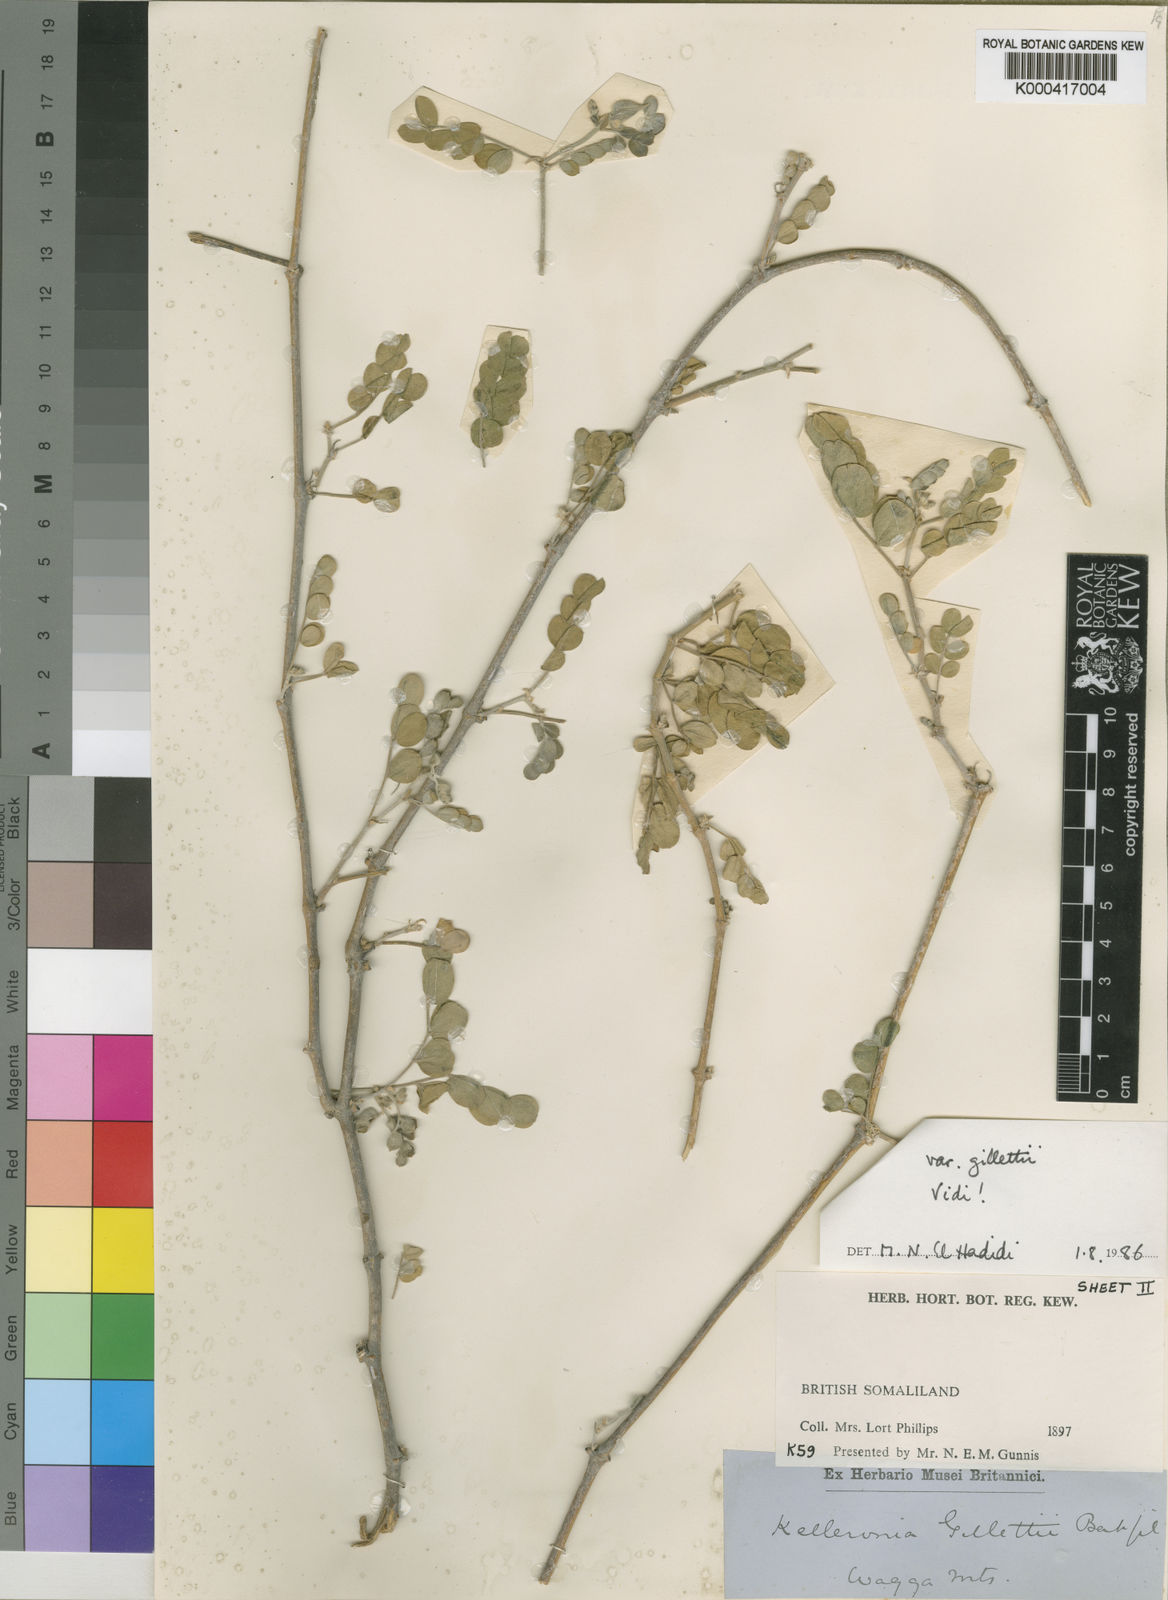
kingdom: Plantae
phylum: Tracheophyta
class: Magnoliopsida
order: Zygophyllales
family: Zygophyllaceae
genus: Kelleronia
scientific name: Kelleronia gillettiae
